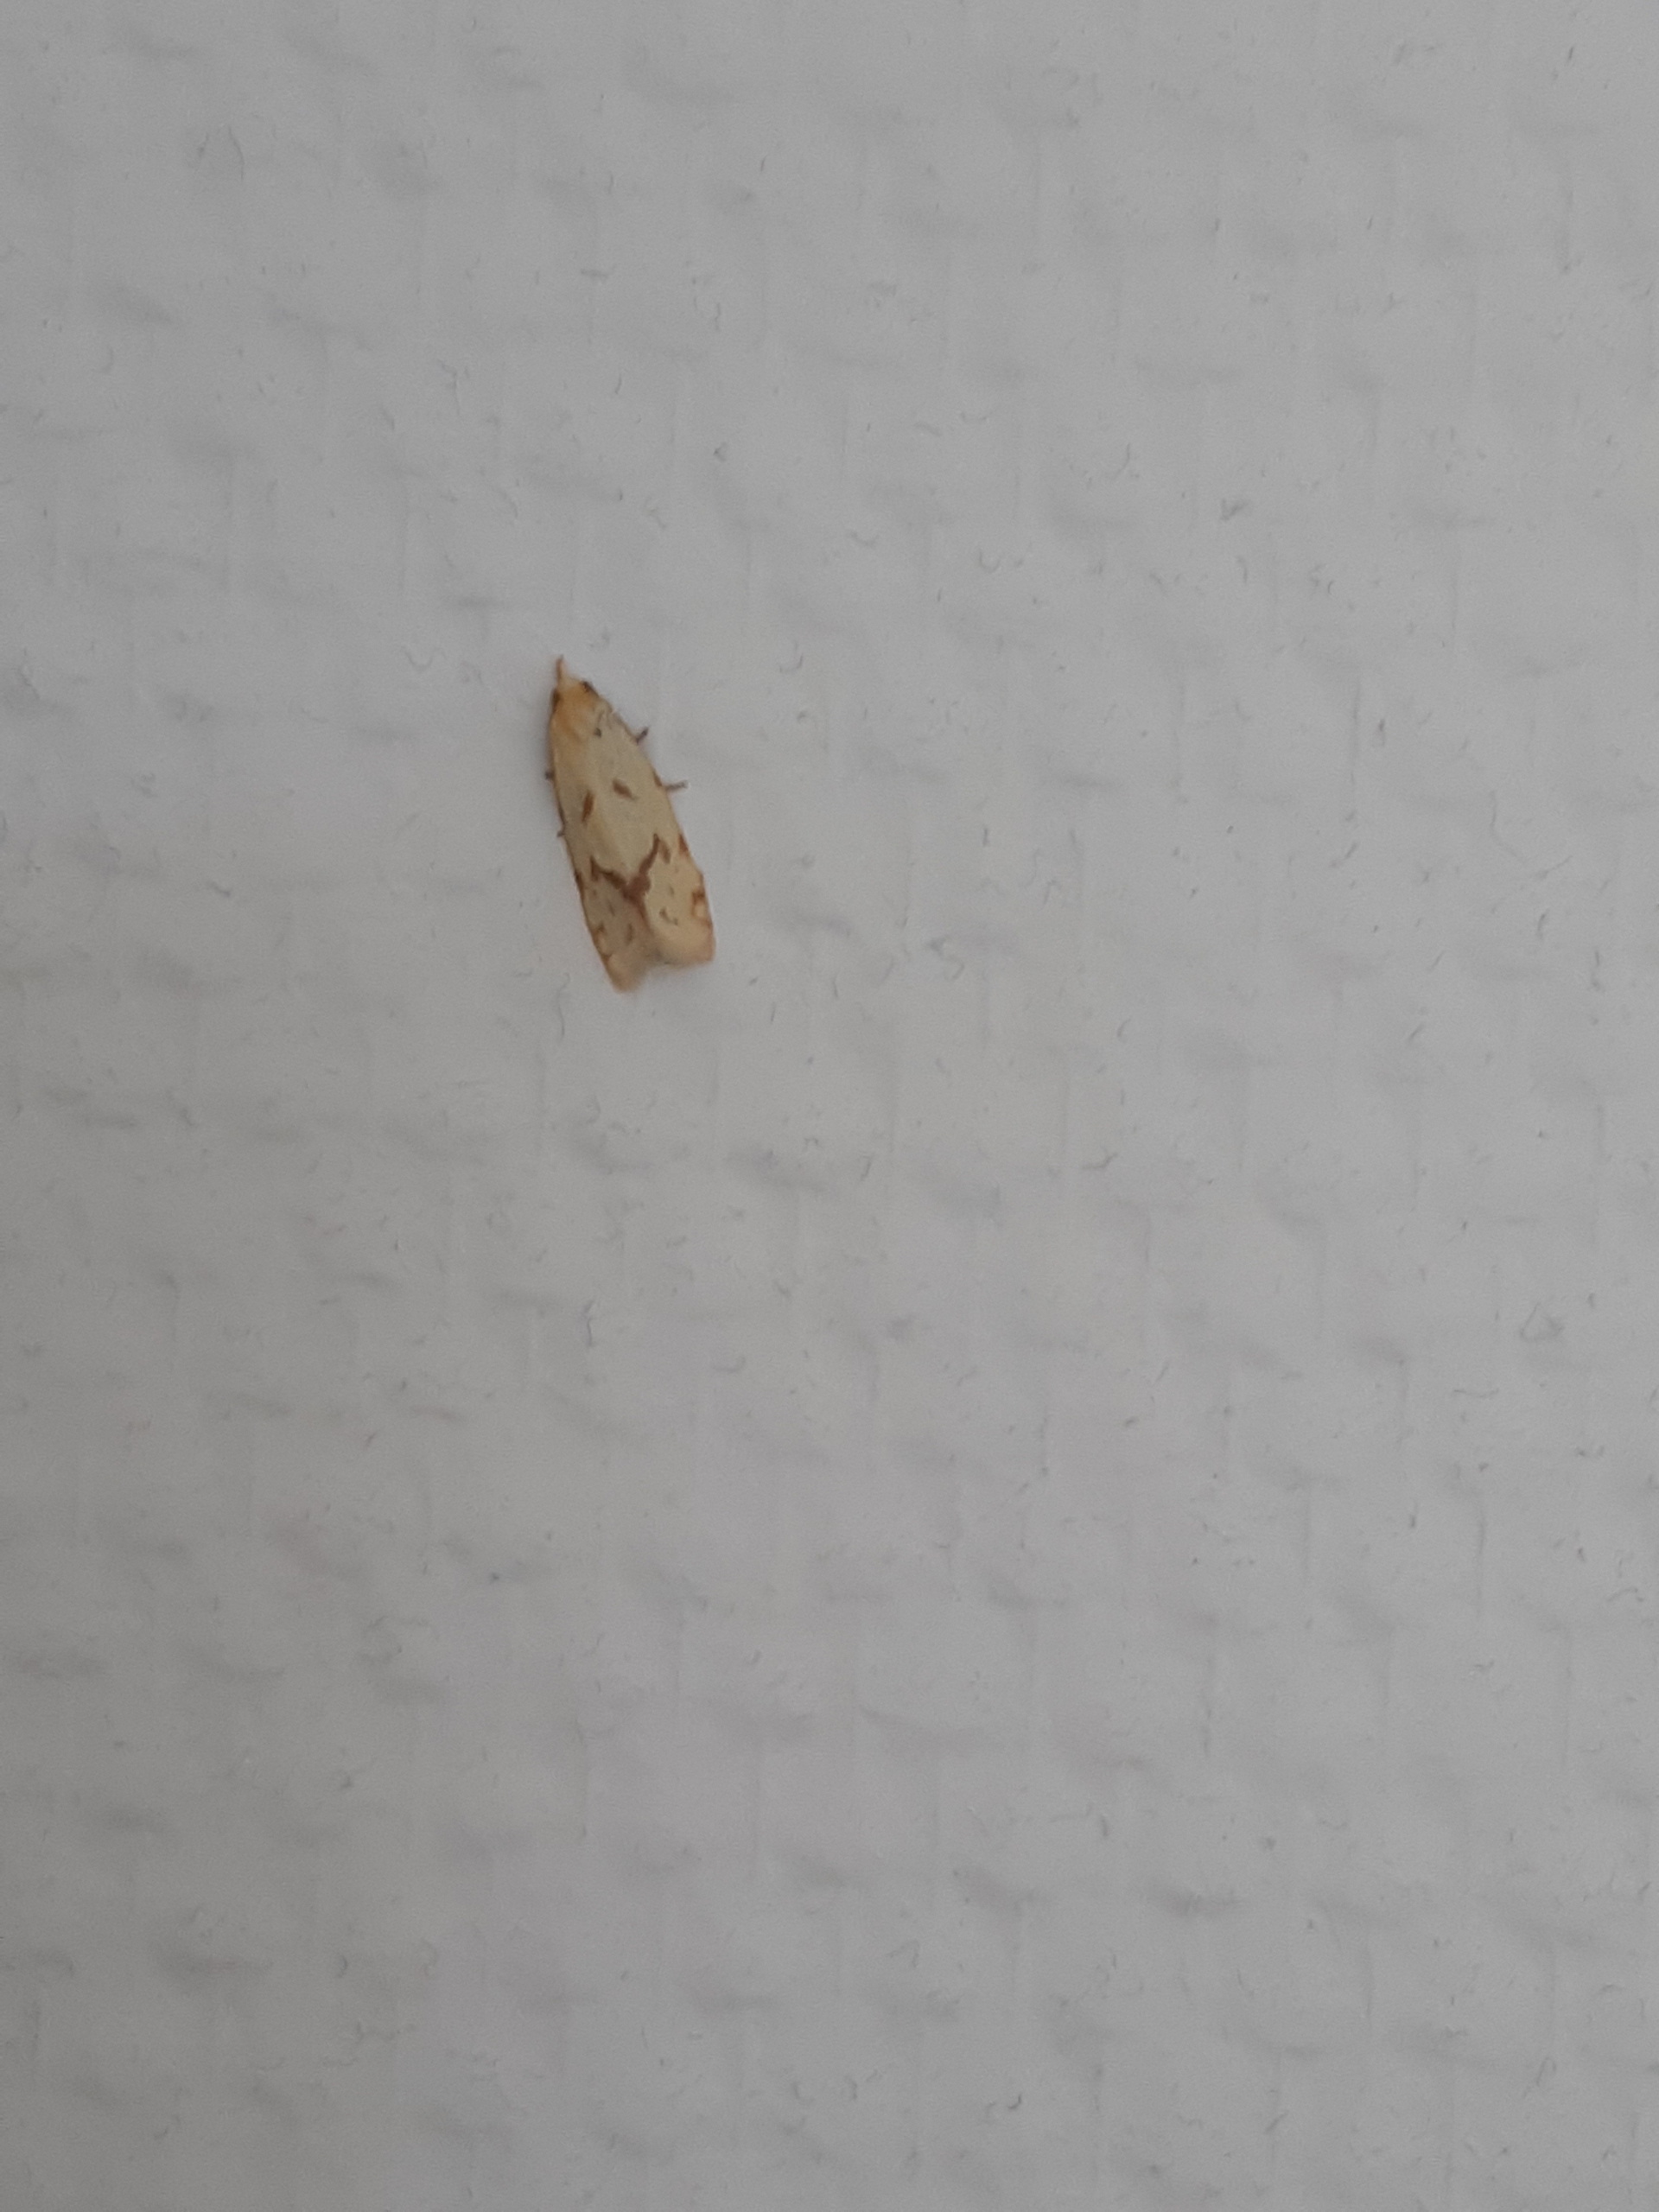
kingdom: Animalia
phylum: Arthropoda
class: Insecta
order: Lepidoptera
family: Tortricidae
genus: Agapeta
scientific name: Agapeta hamana
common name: Tidselgulvikler
